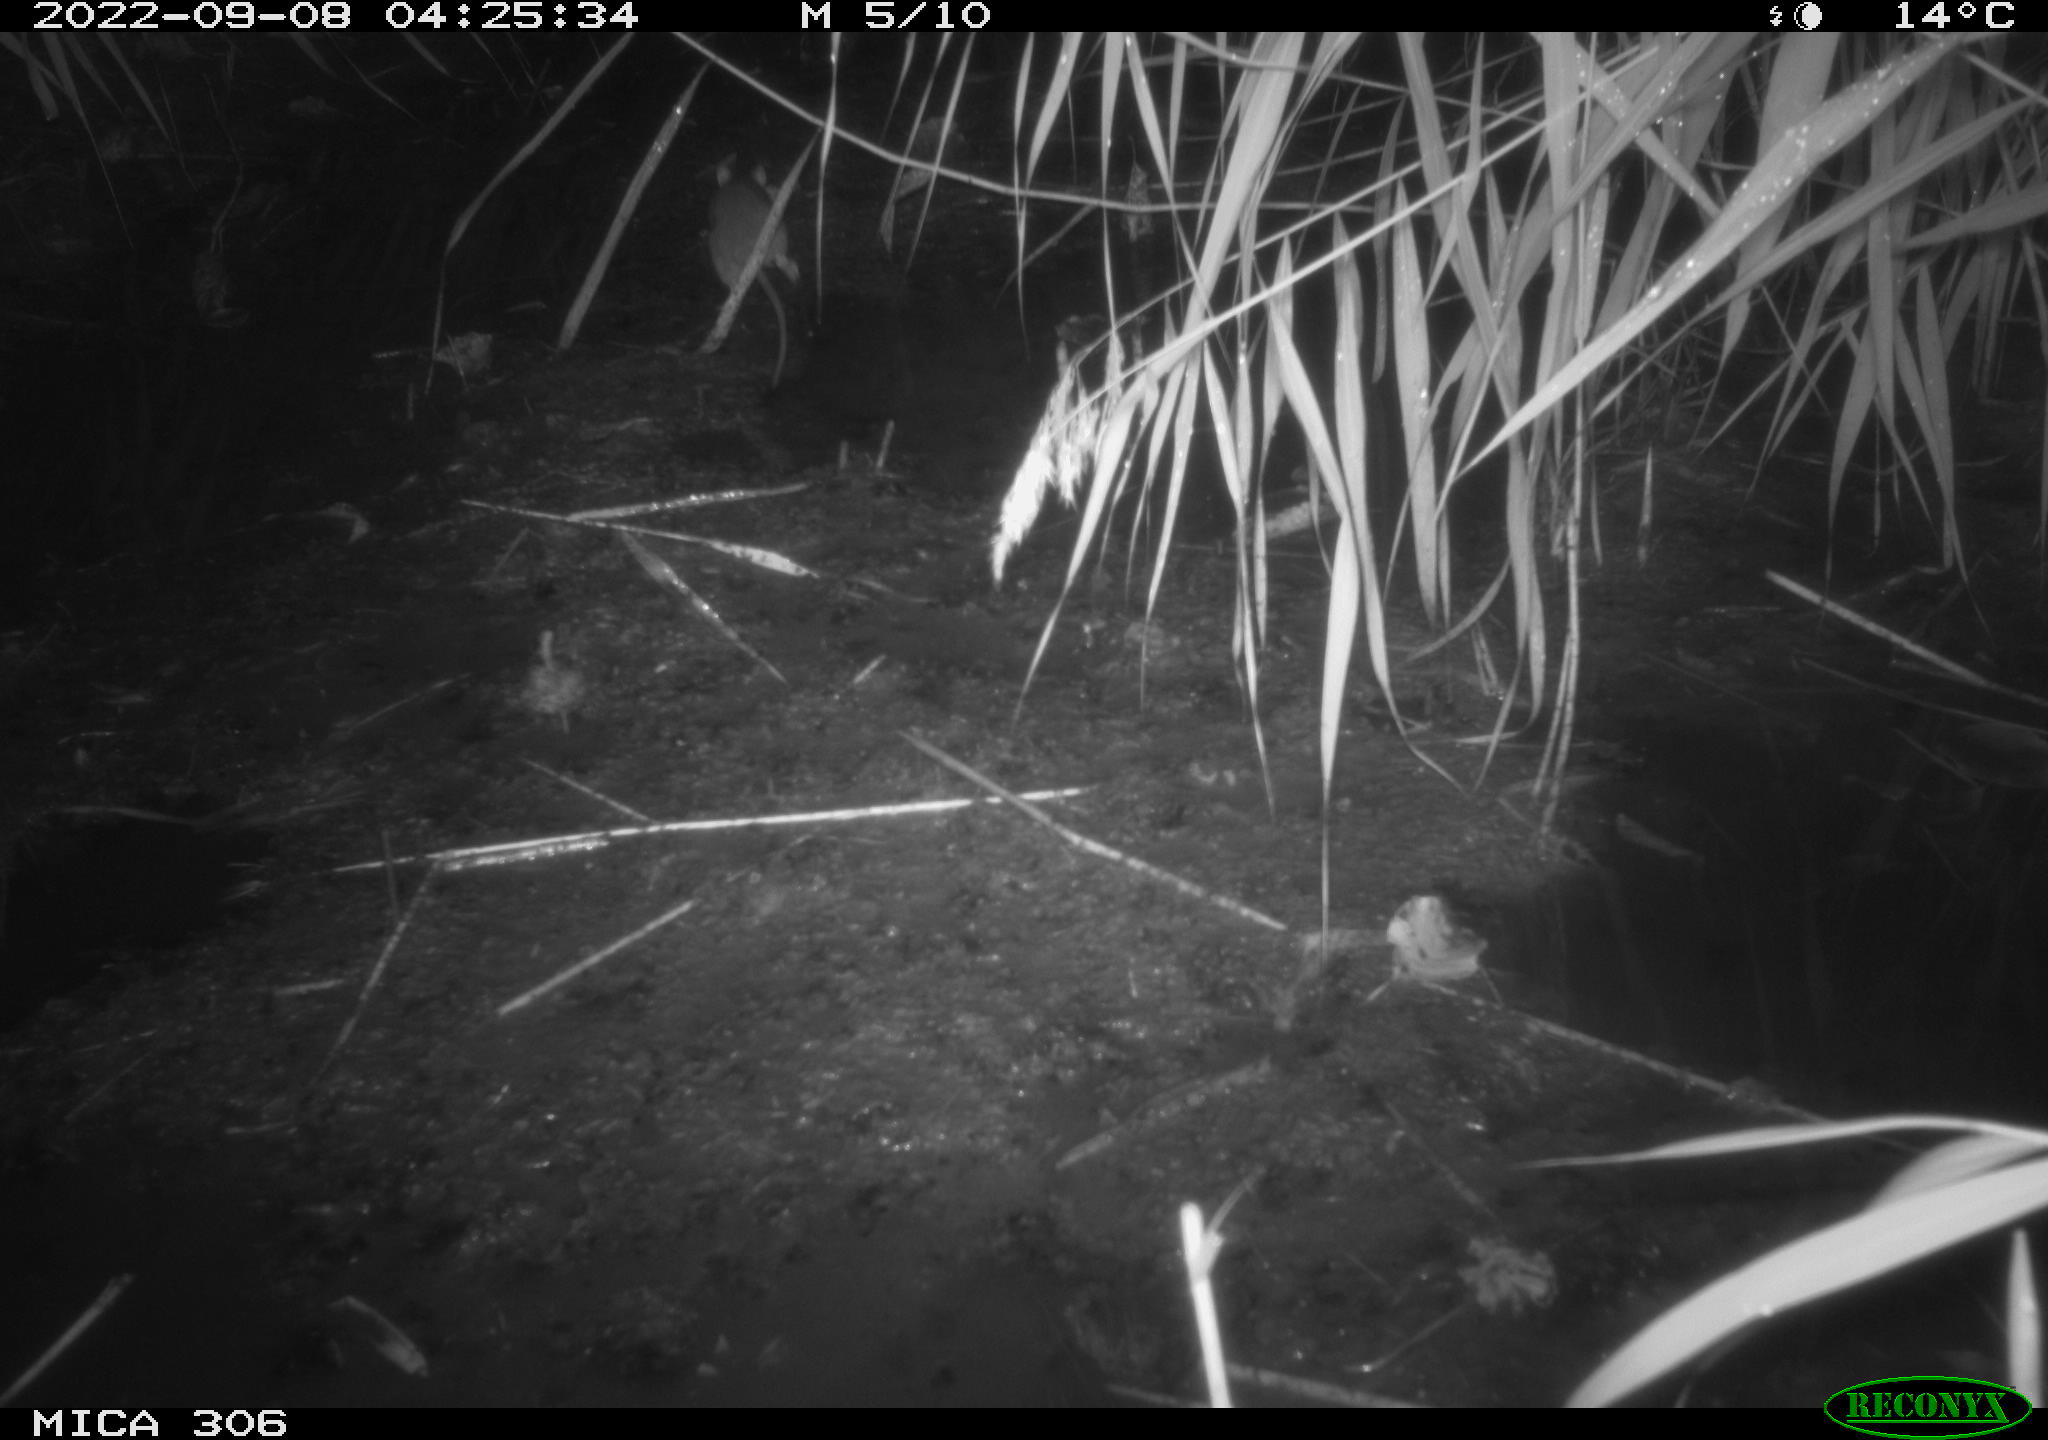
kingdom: Animalia
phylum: Chordata
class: Mammalia
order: Rodentia
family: Muridae
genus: Rattus
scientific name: Rattus norvegicus
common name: Brown rat
